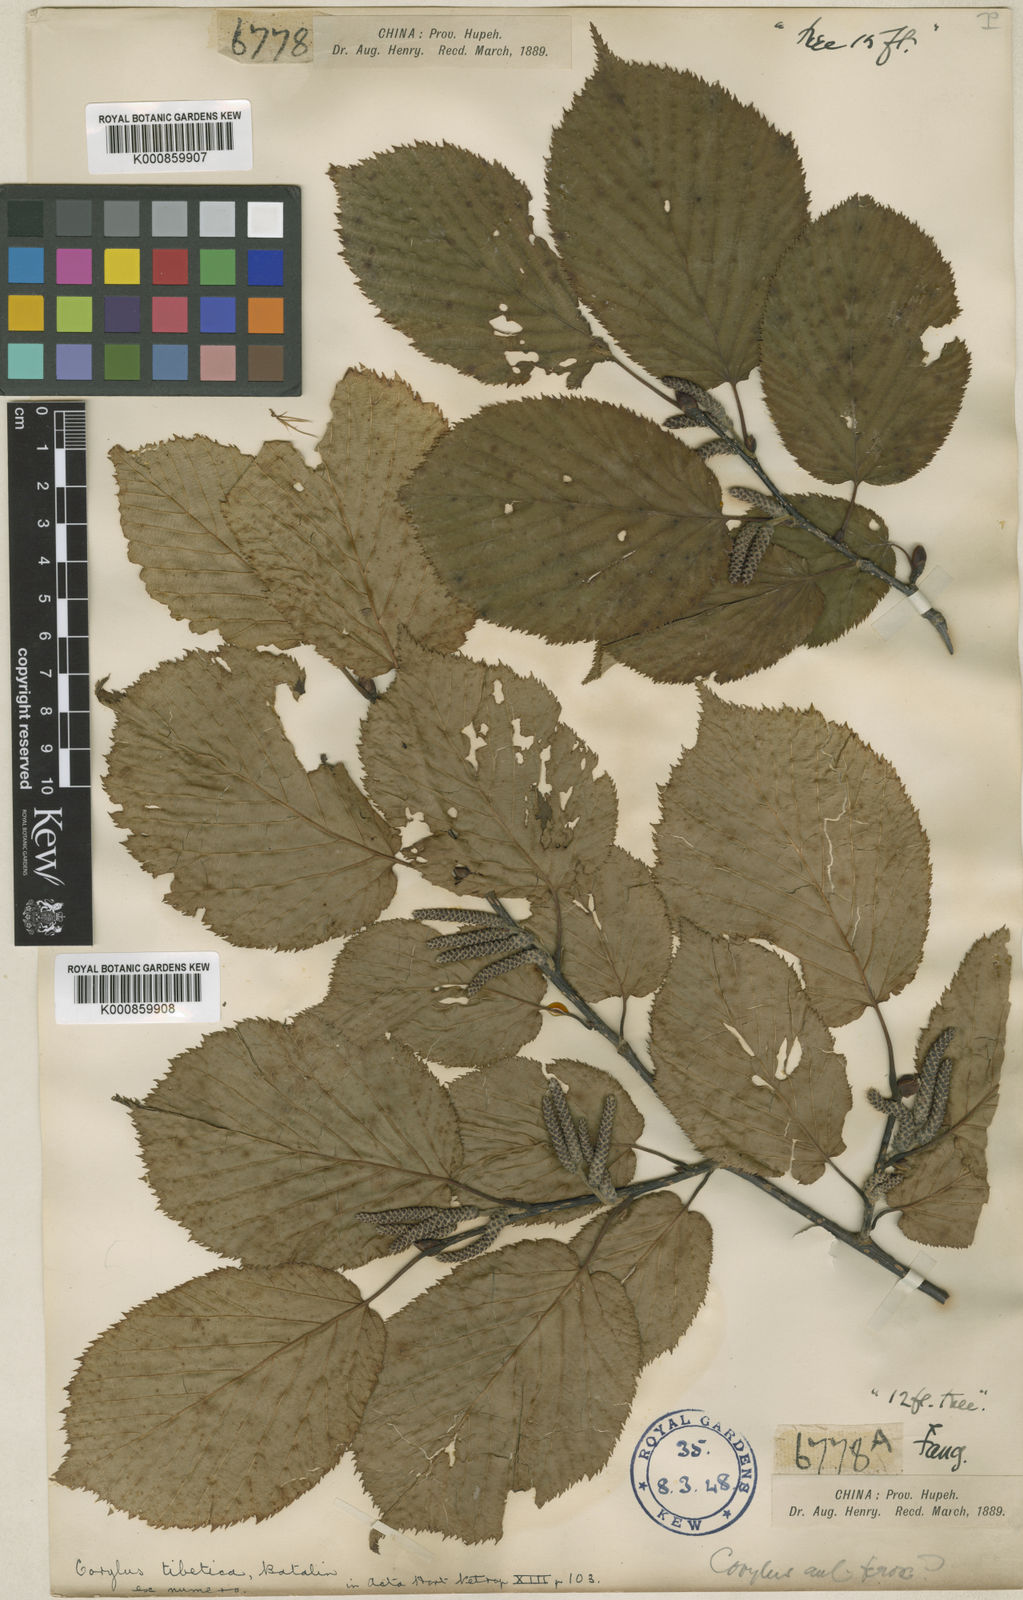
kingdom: Plantae
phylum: Tracheophyta
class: Magnoliopsida
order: Fagales
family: Betulaceae
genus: Corylus
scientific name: Corylus ferox
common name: Himalayan hazel
